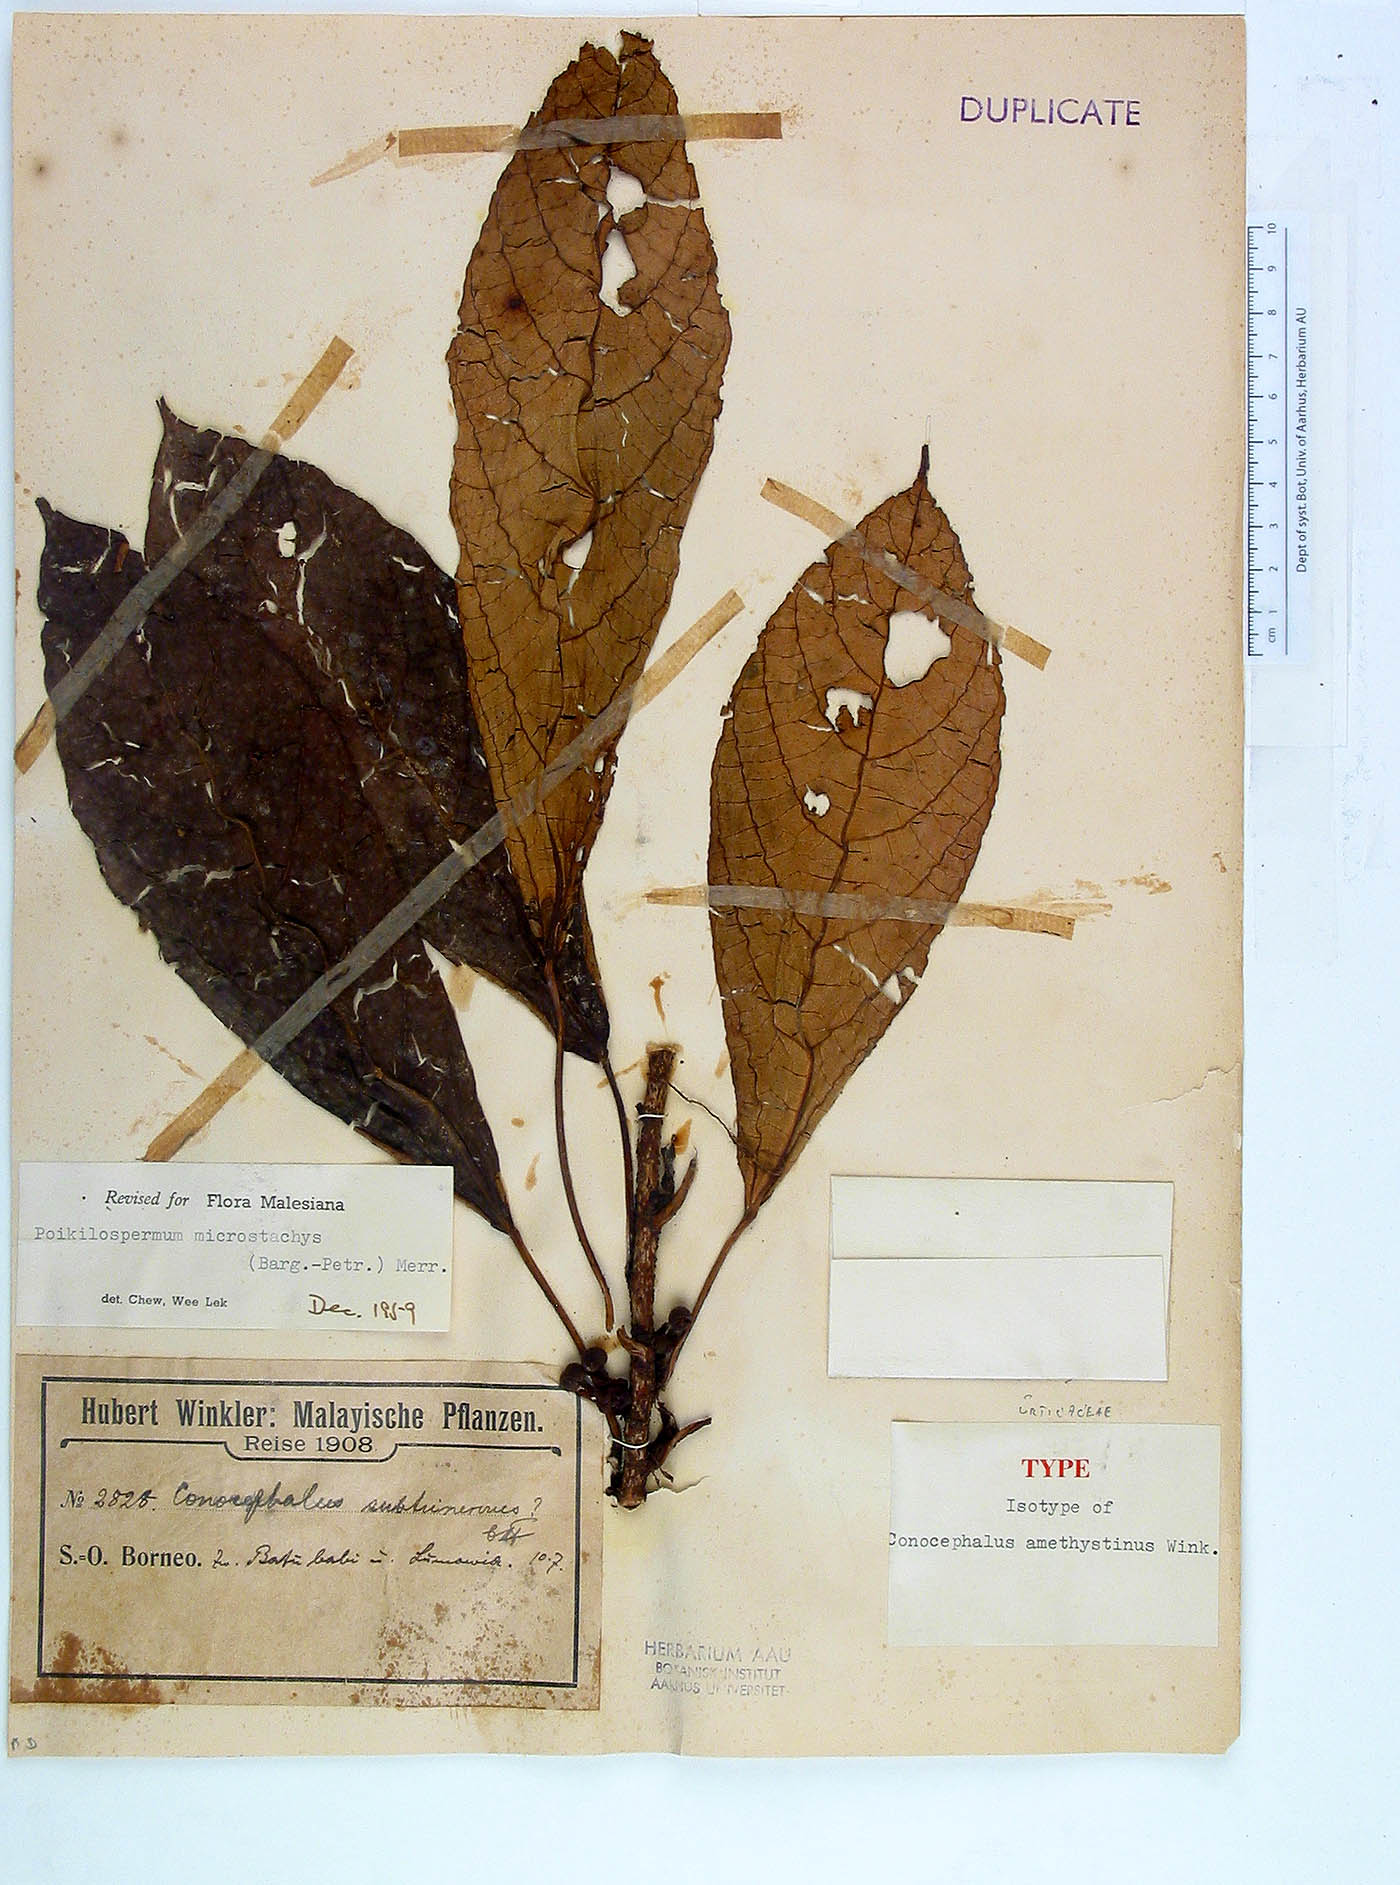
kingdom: Plantae
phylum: Tracheophyta
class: Magnoliopsida
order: Rosales
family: Urticaceae
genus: Poikilospermum
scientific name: Poikilospermum microstachys
